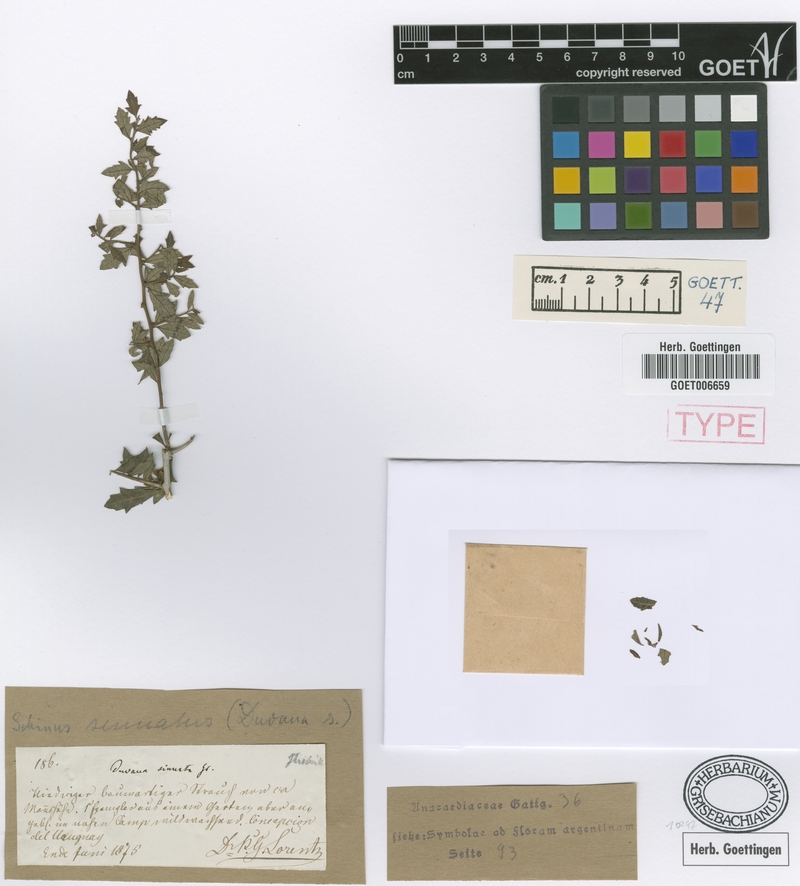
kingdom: Plantae
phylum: Tracheophyta
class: Magnoliopsida
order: Sapindales
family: Anacardiaceae
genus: Schinus
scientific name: Schinus fasciculata
